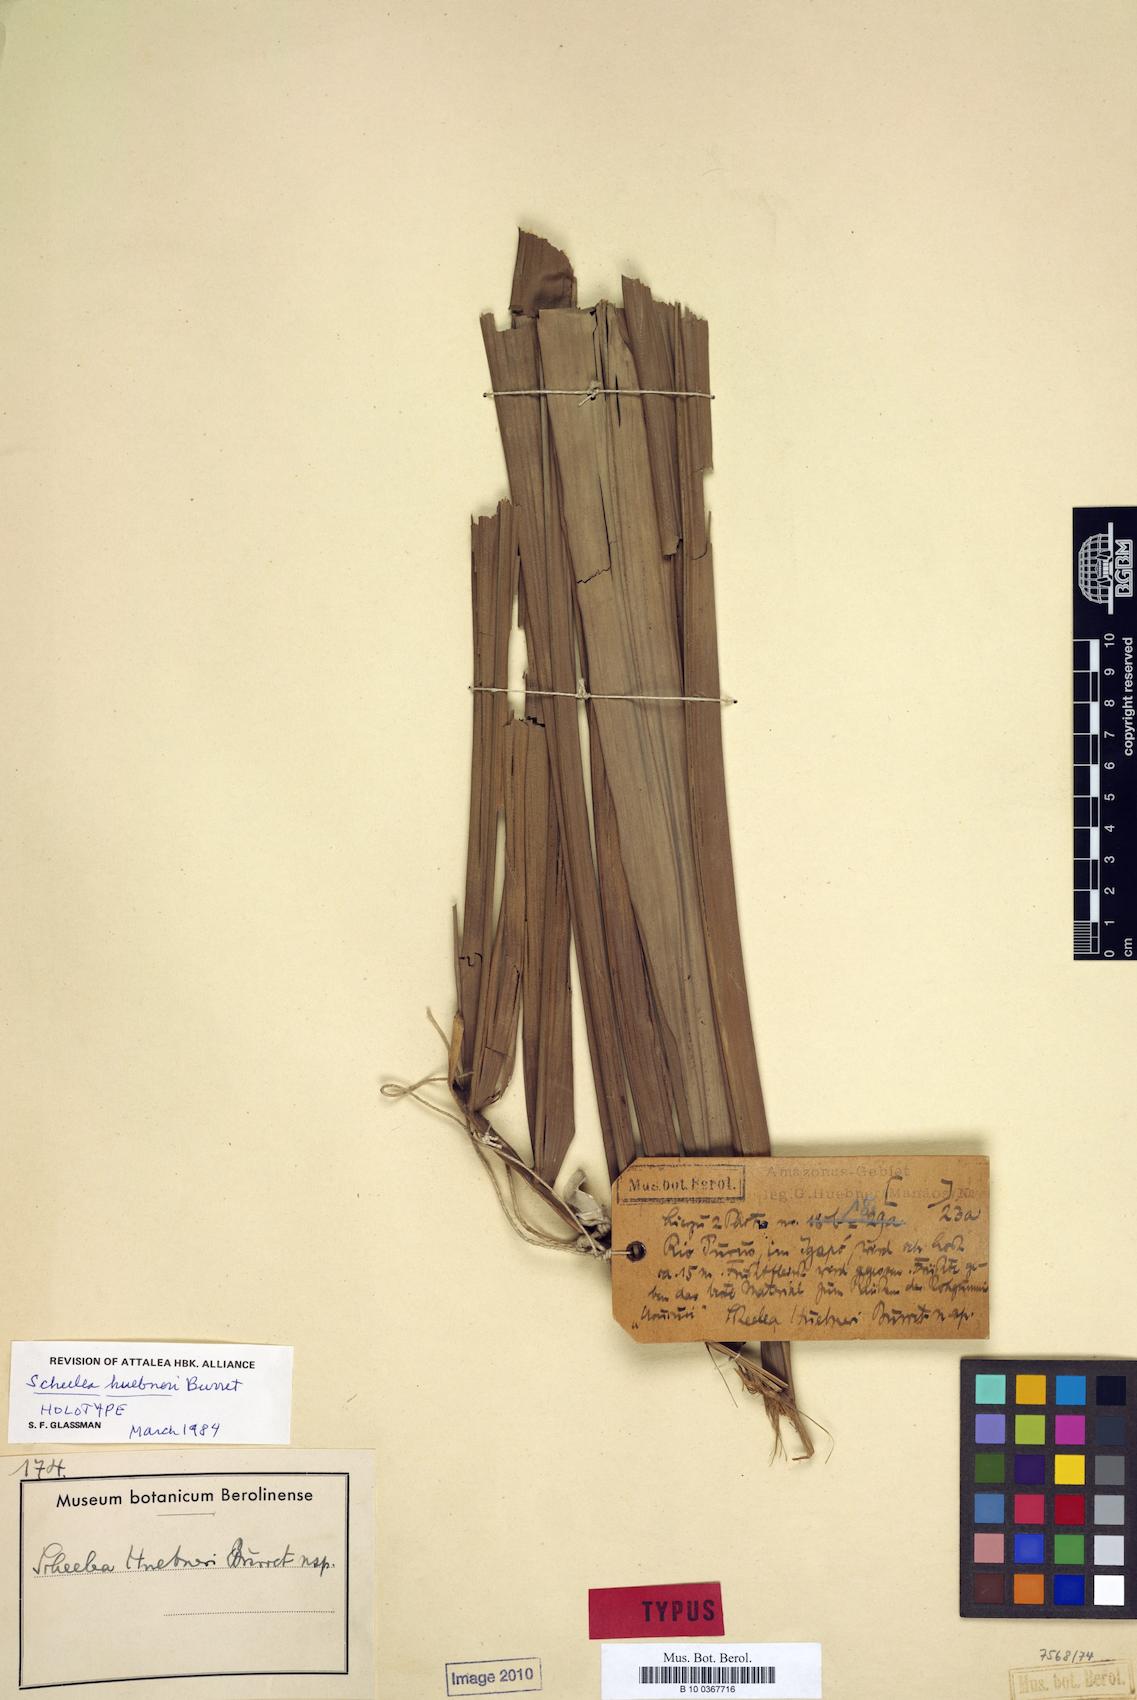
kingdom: Plantae
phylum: Tracheophyta
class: Liliopsida
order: Arecales
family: Arecaceae
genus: Attalea
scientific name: Attalea phalerata
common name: Urucuri palm
